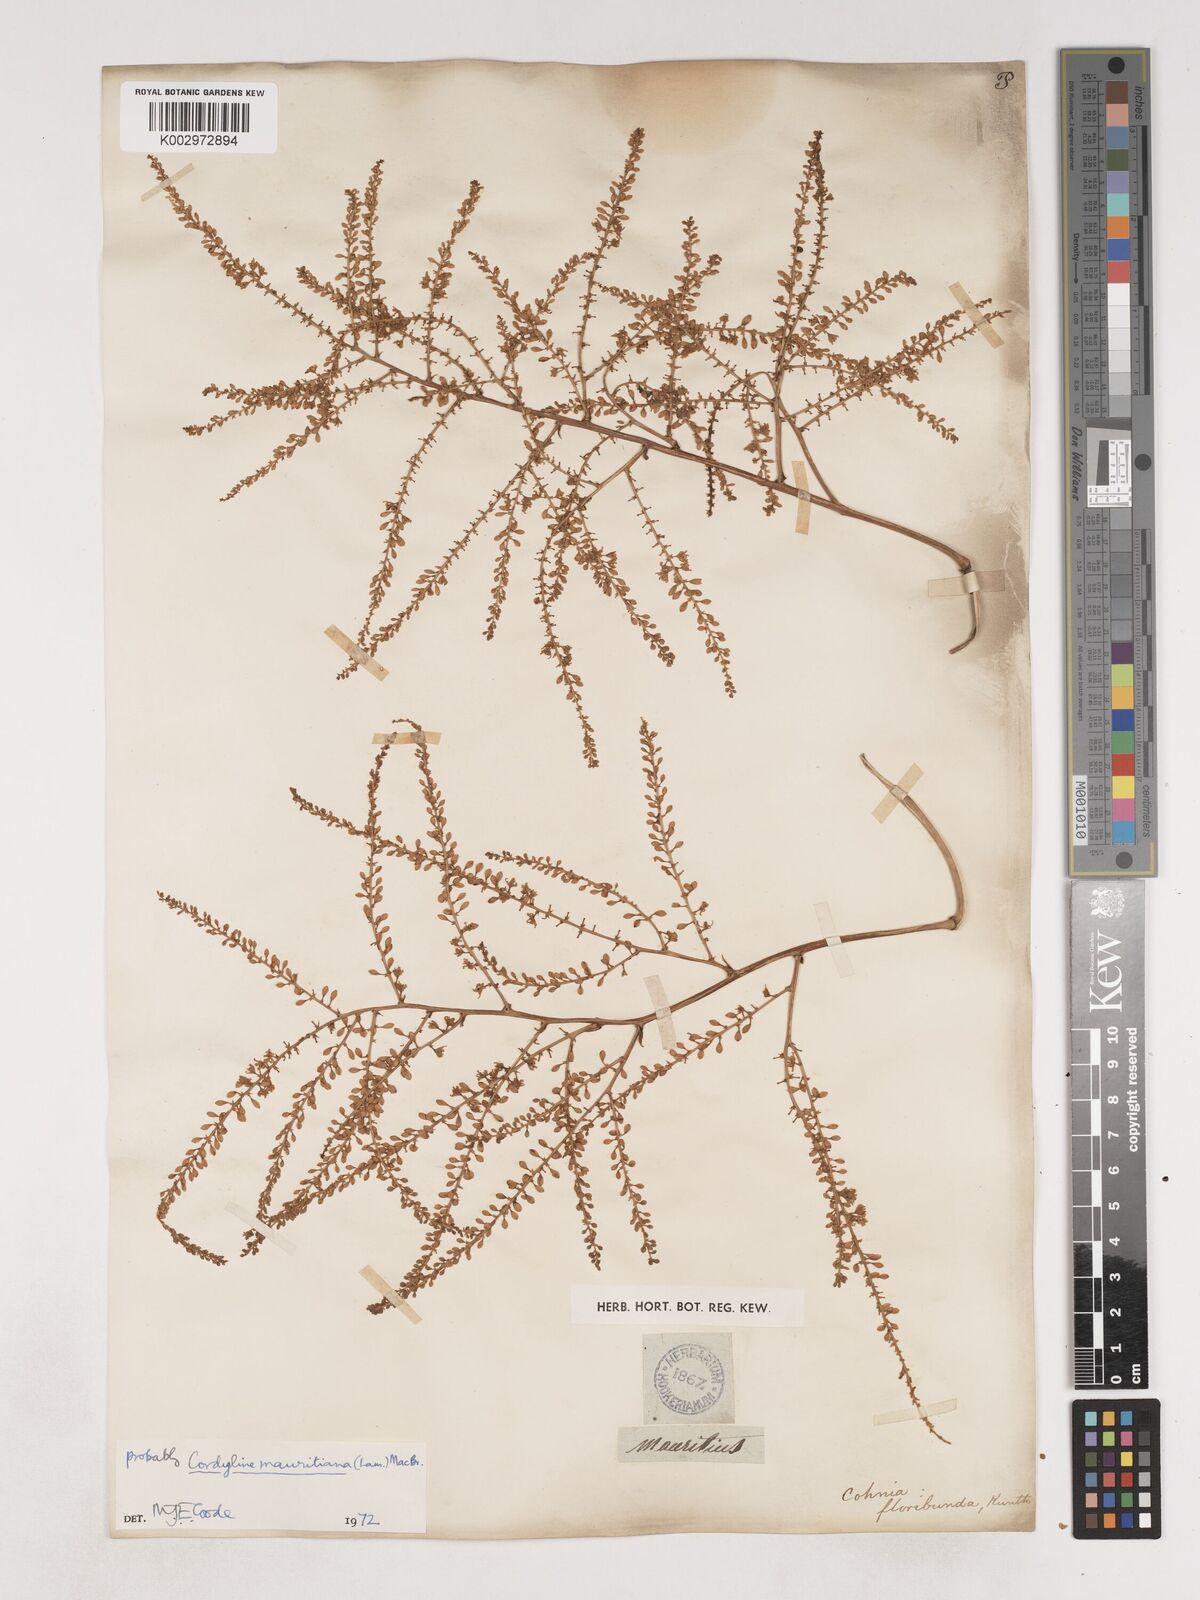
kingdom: Plantae
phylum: Tracheophyta
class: Liliopsida
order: Asparagales
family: Asparagaceae
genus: Cordyline
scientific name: Cordyline mauritiana
